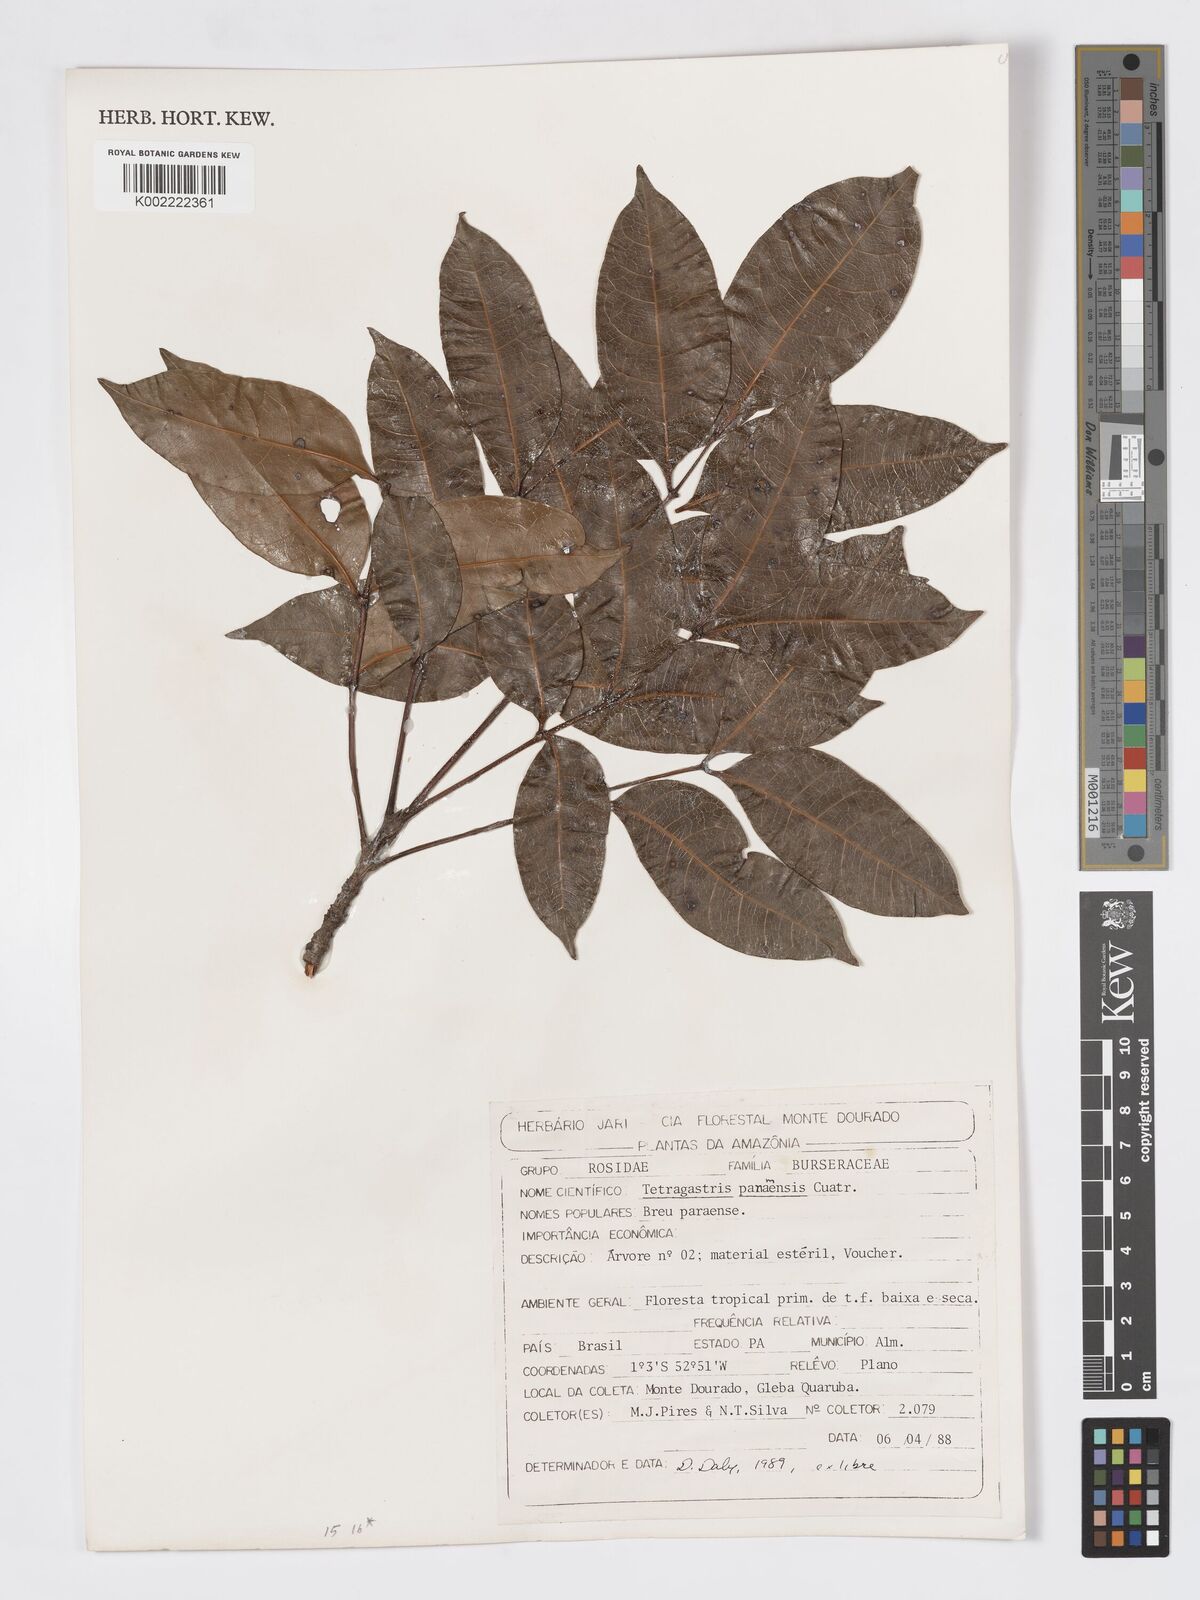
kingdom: Plantae
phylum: Tracheophyta
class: Magnoliopsida
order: Sapindales
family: Burseraceae
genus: Tetragastris
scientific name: Tetragastris panamensis
